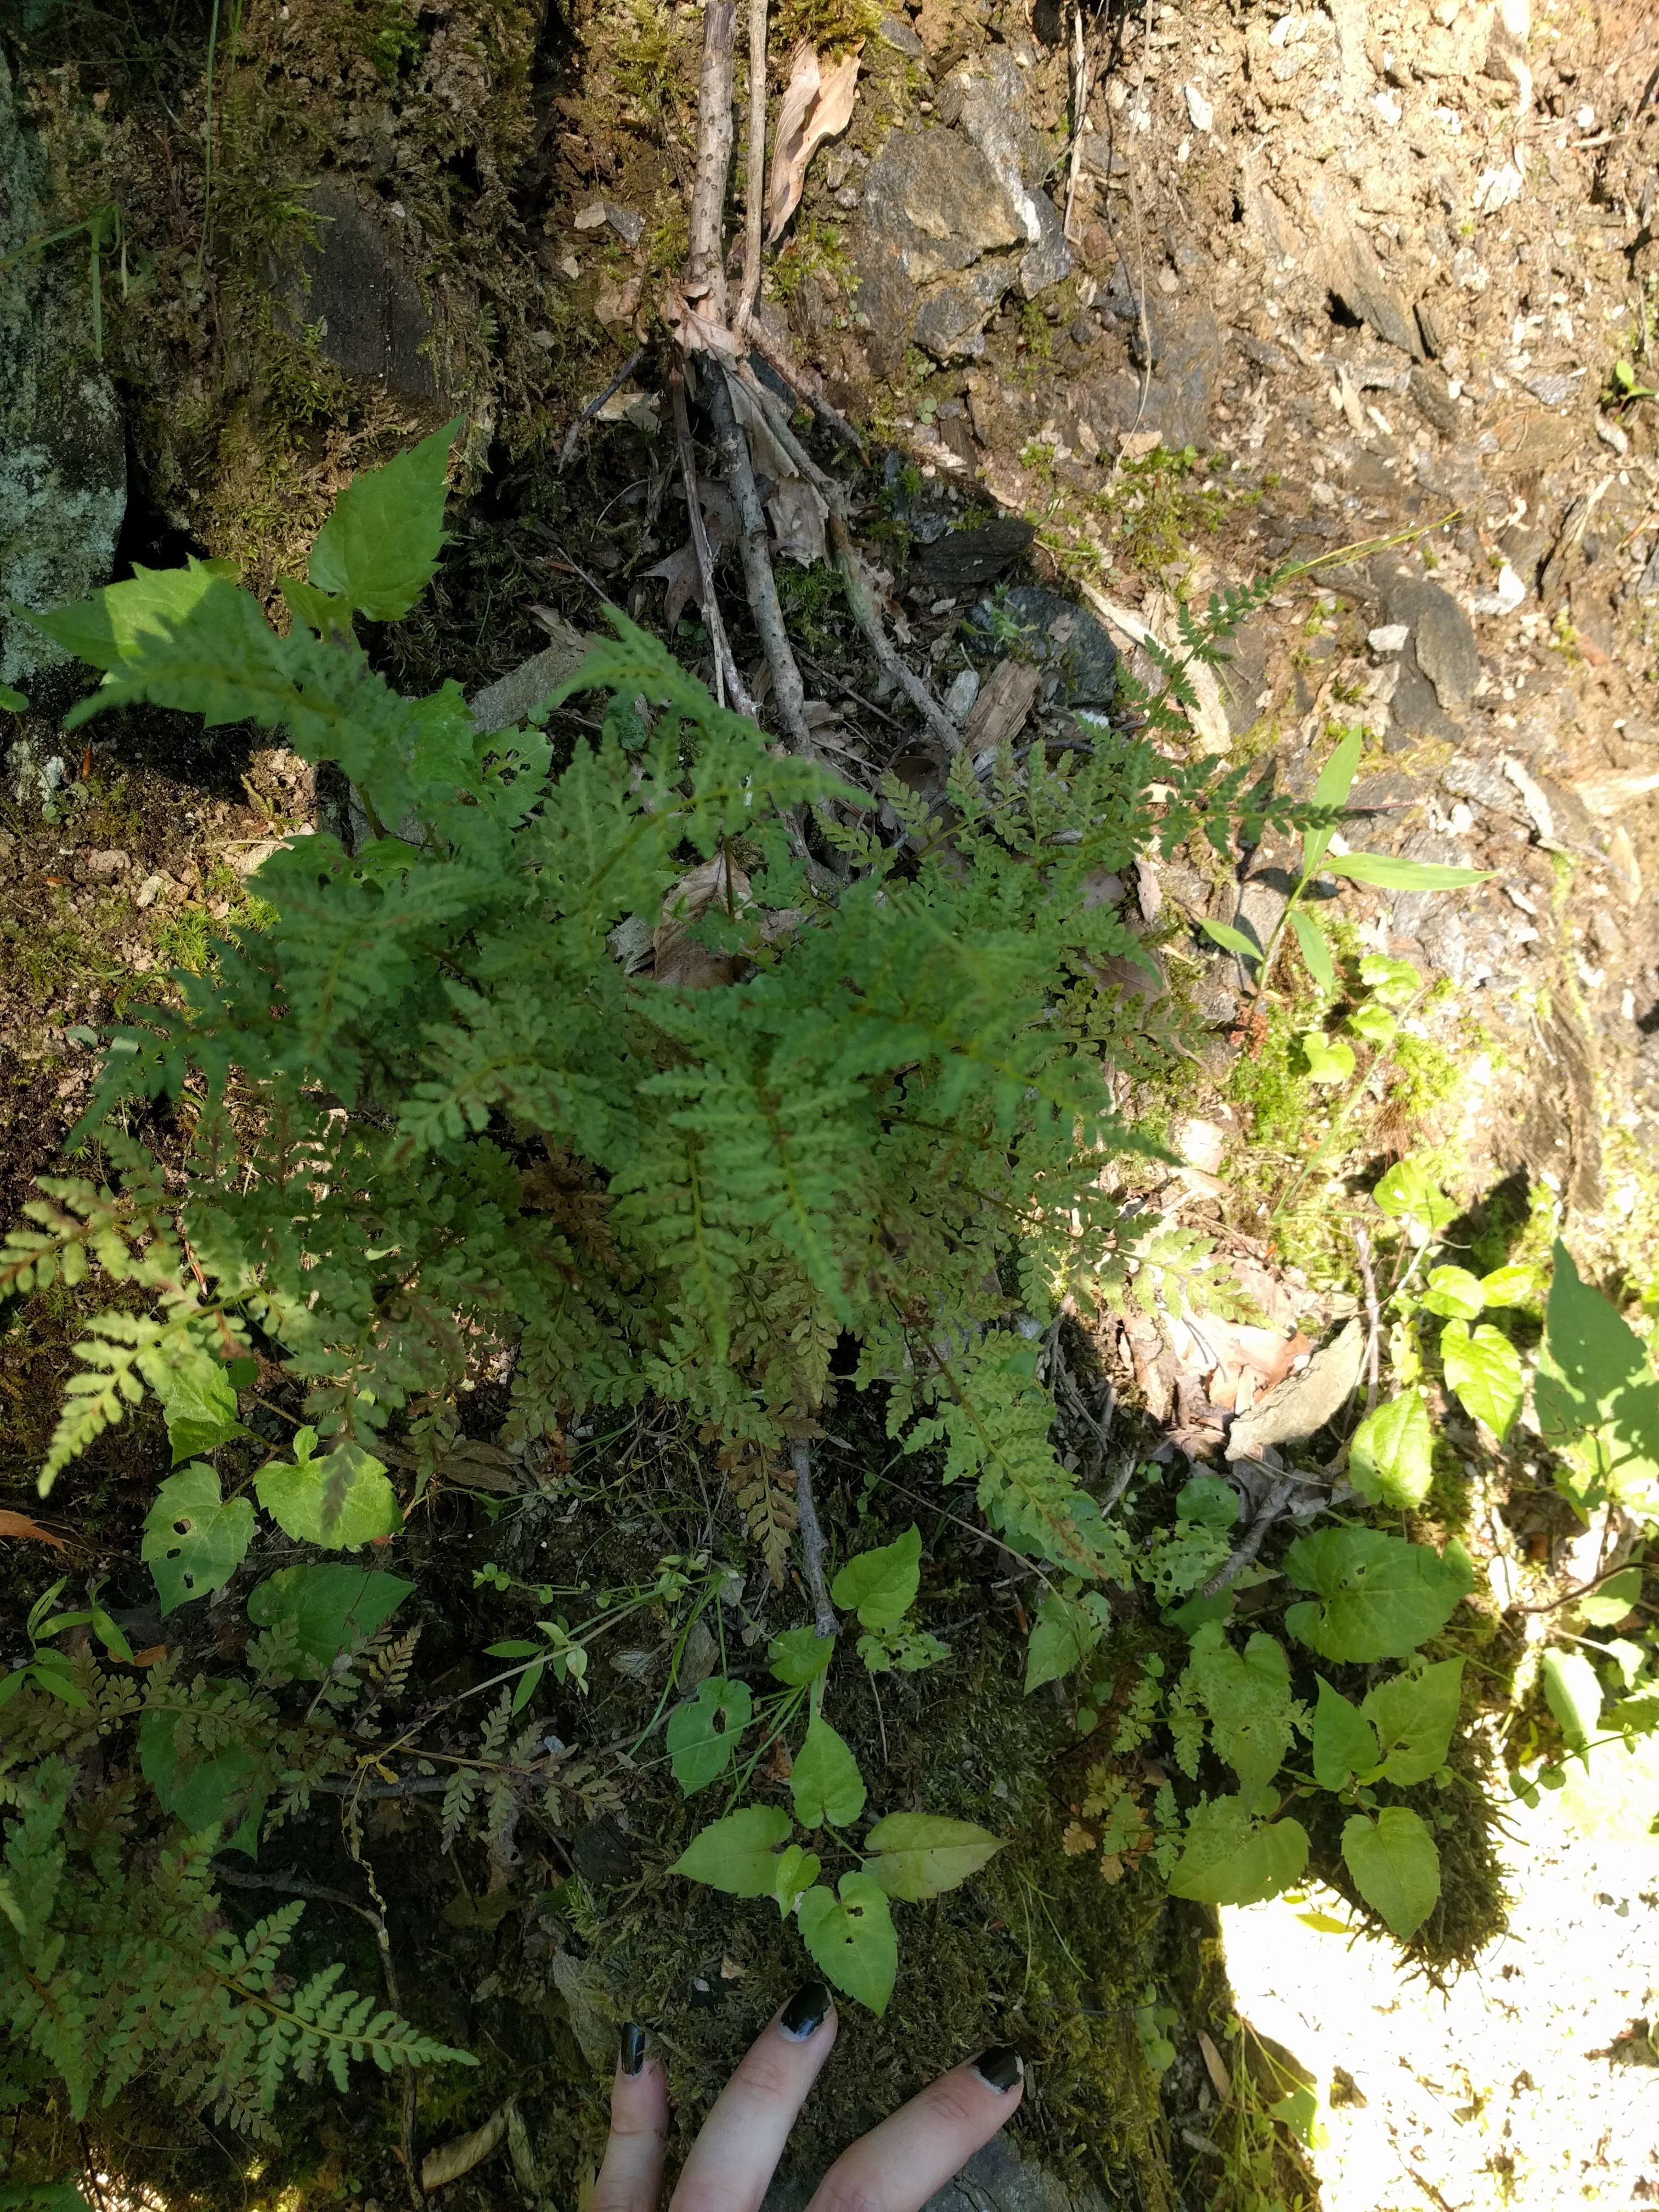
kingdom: Plantae
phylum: Tracheophyta
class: Polypodiopsida
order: Polypodiales
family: Cystopteridaceae
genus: Cystopteris
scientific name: Cystopteris tenuis
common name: Mackay's brittle fern
